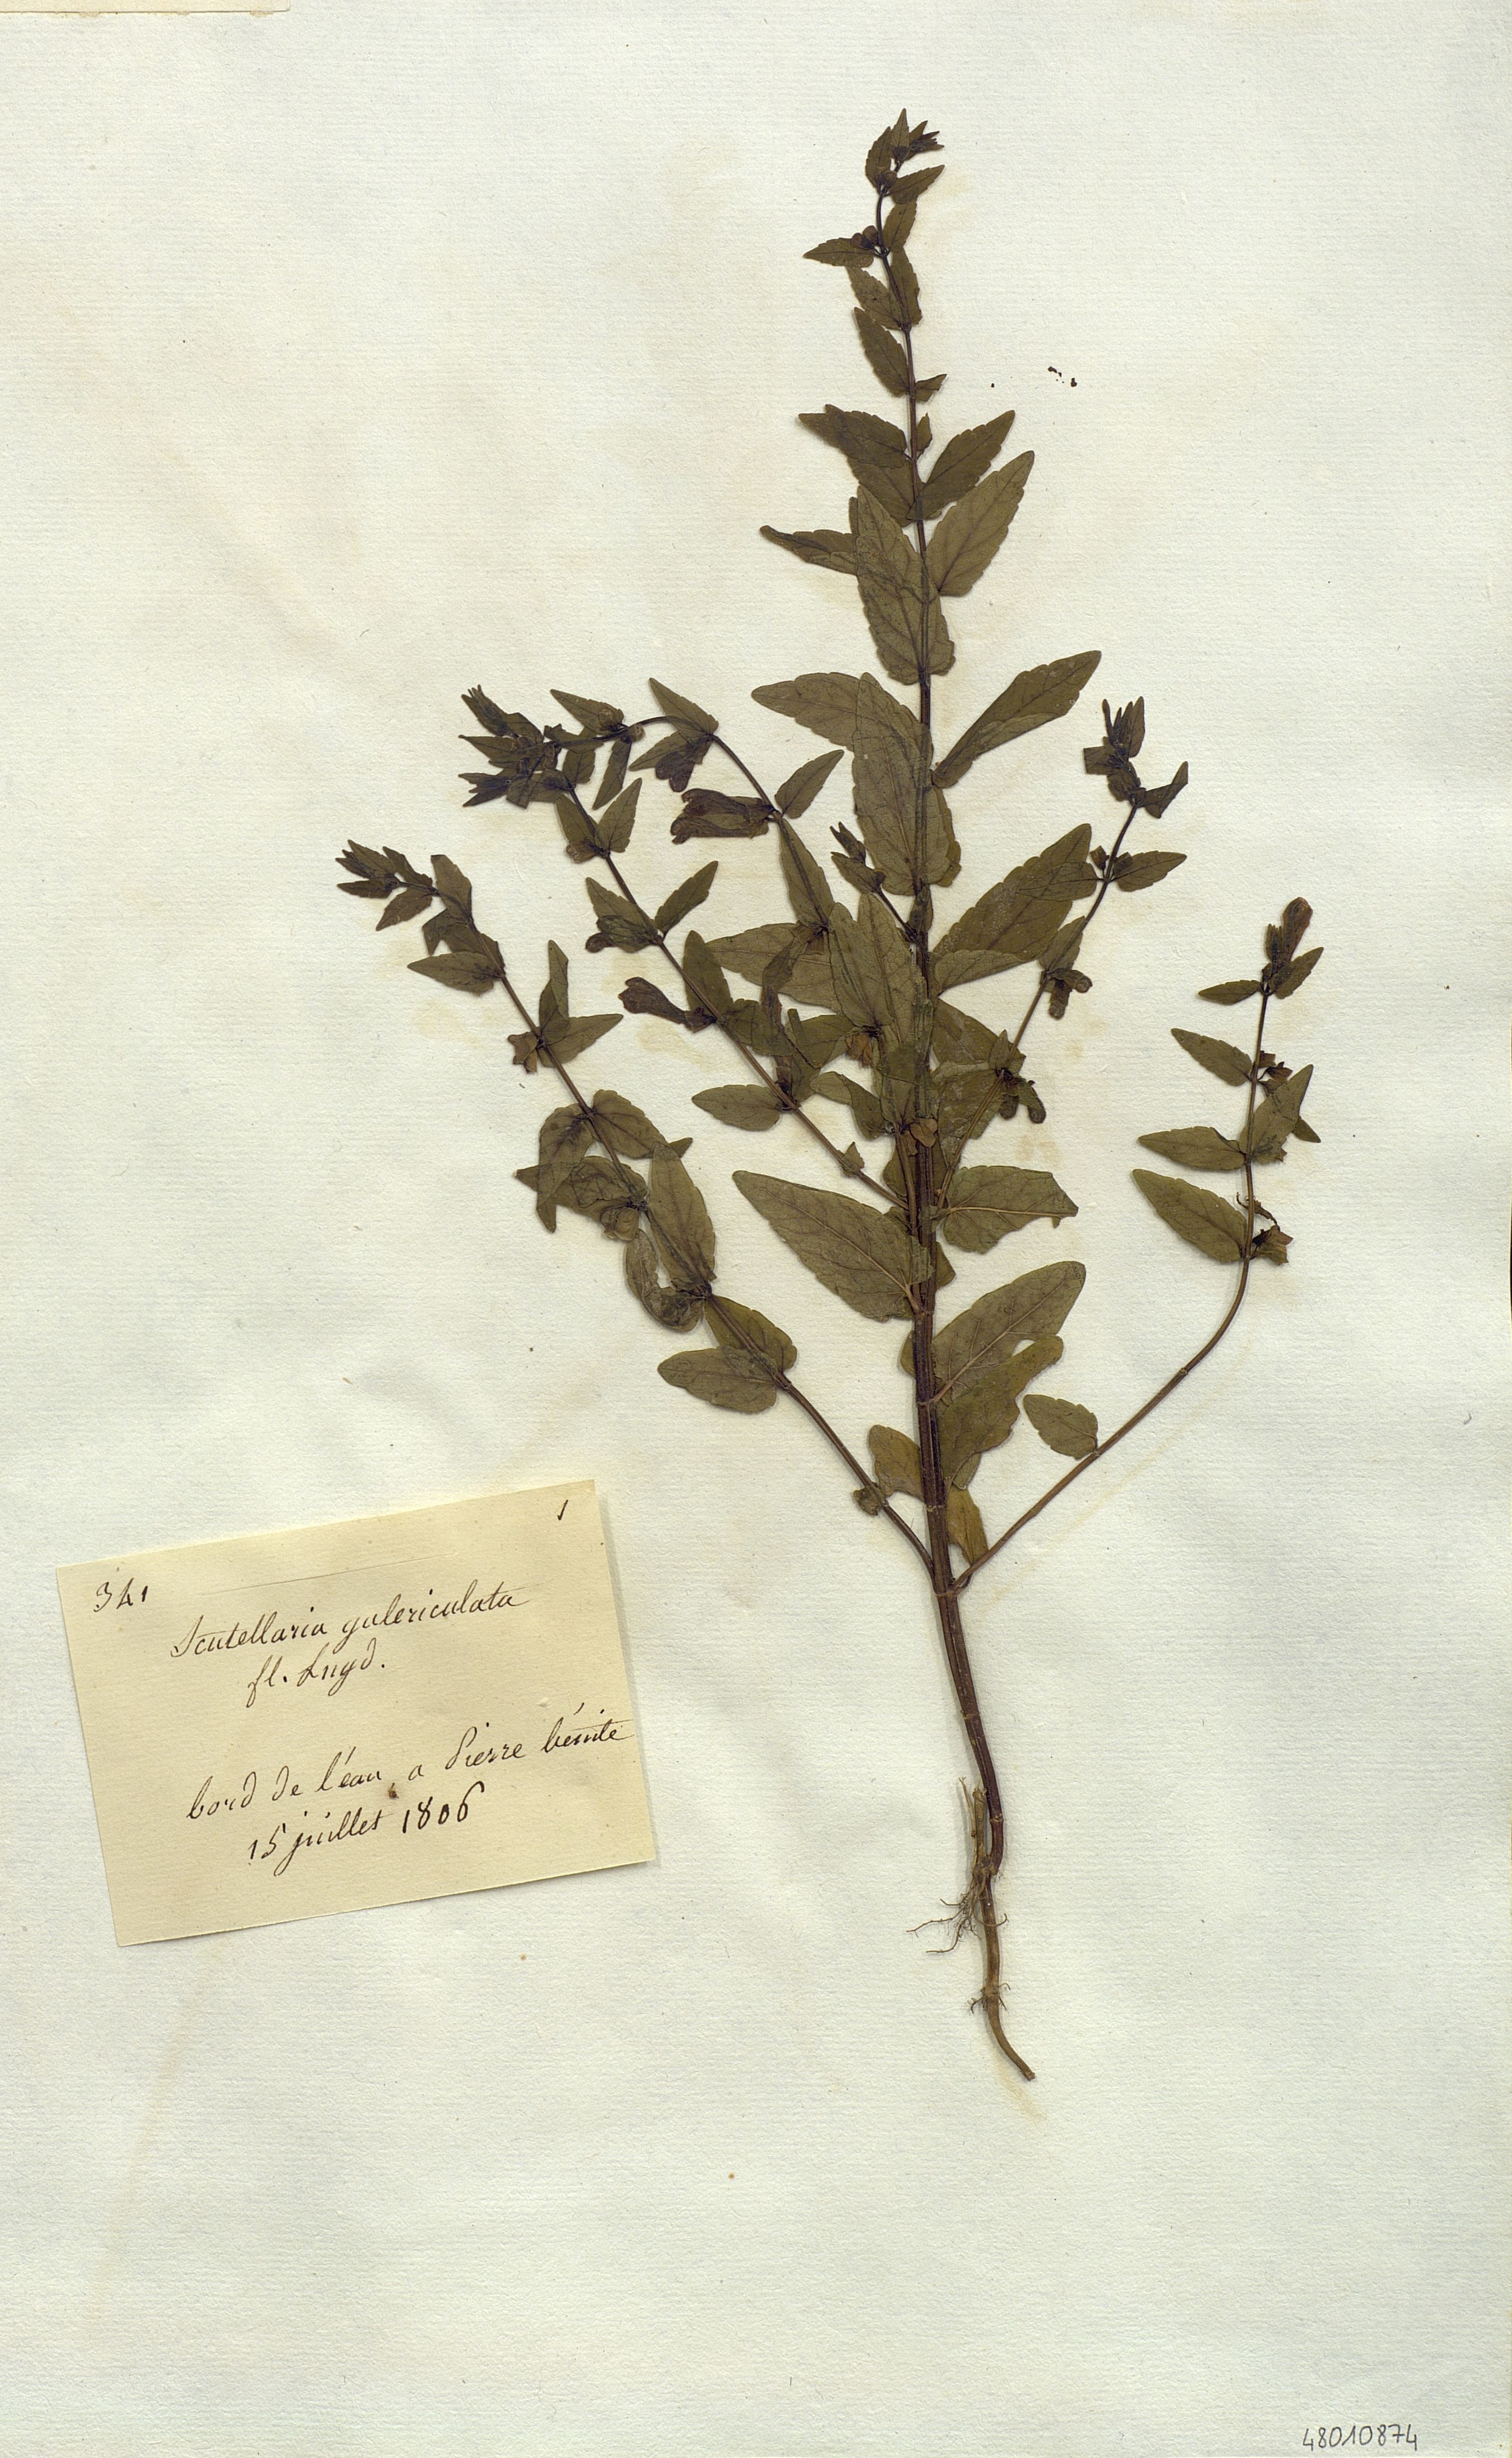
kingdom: Plantae
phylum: Tracheophyta
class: Magnoliopsida
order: Lamiales
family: Lamiaceae
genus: Scutellaria
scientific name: Scutellaria galericulata
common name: Skullcap
